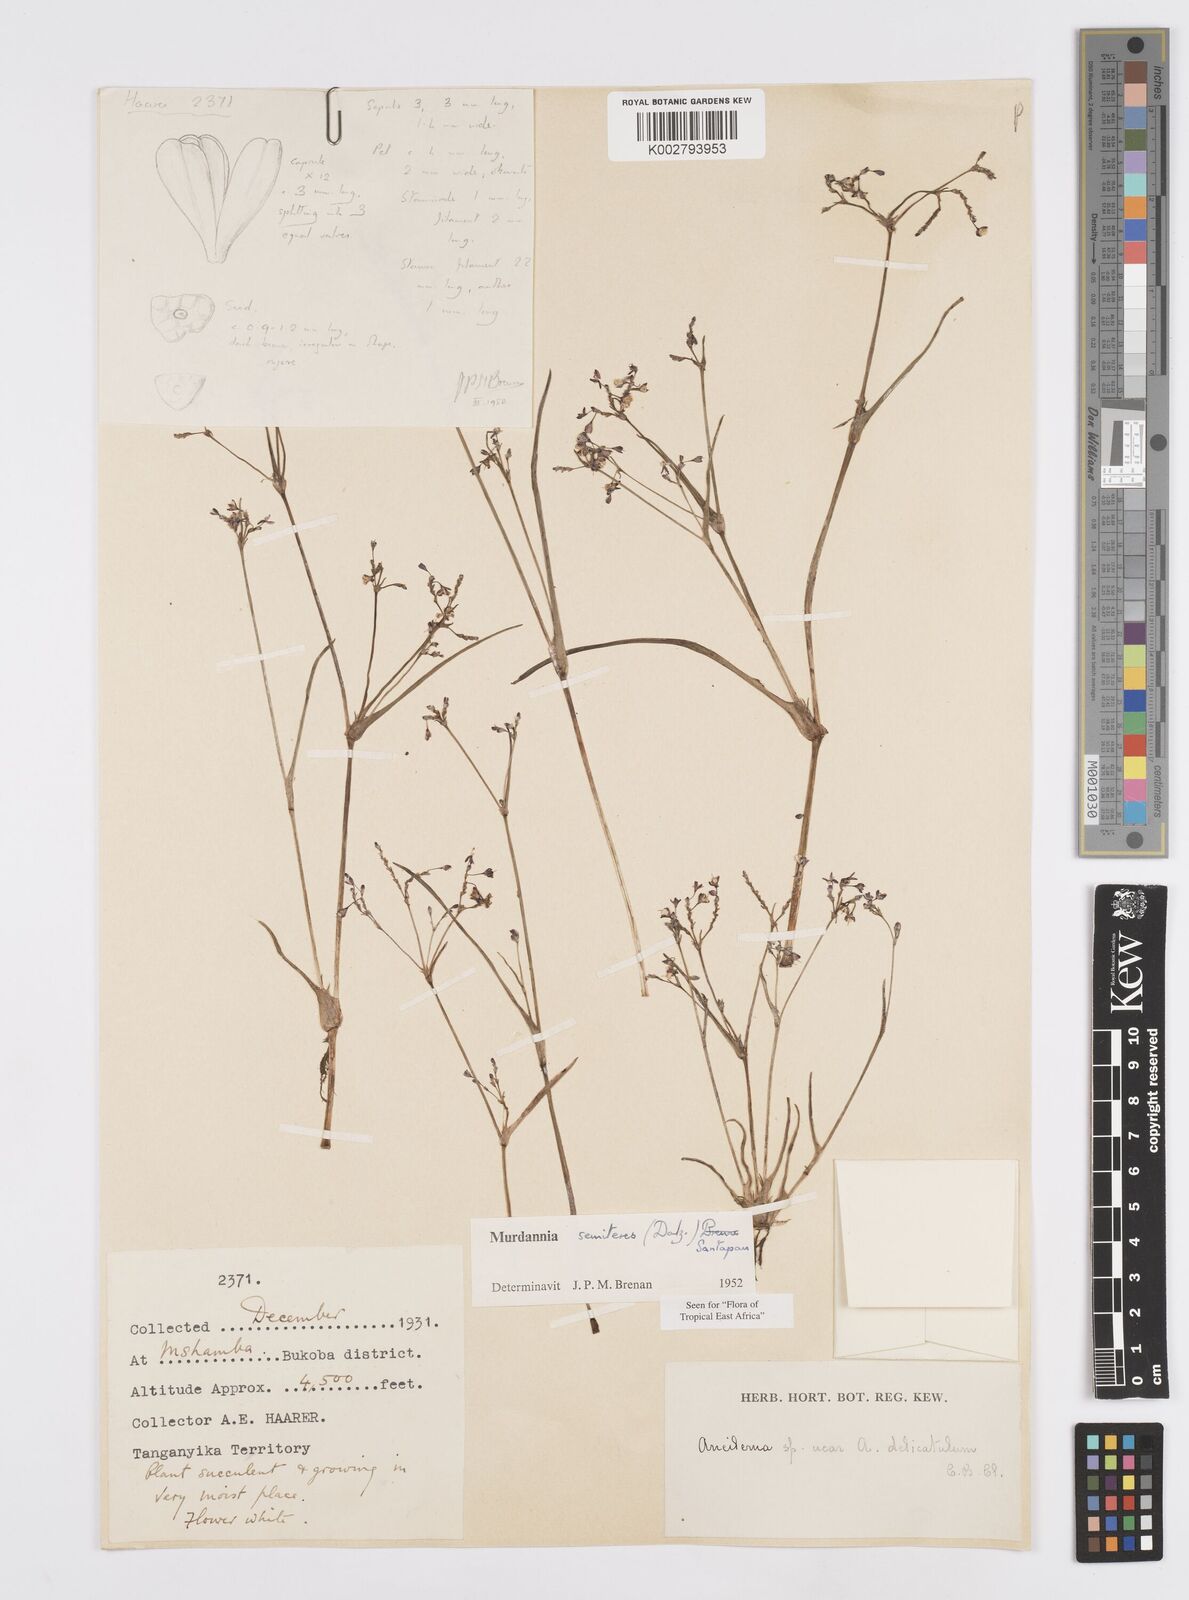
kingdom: Plantae
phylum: Tracheophyta
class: Liliopsida
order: Commelinales
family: Commelinaceae
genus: Murdannia
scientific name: Murdannia semiteres
